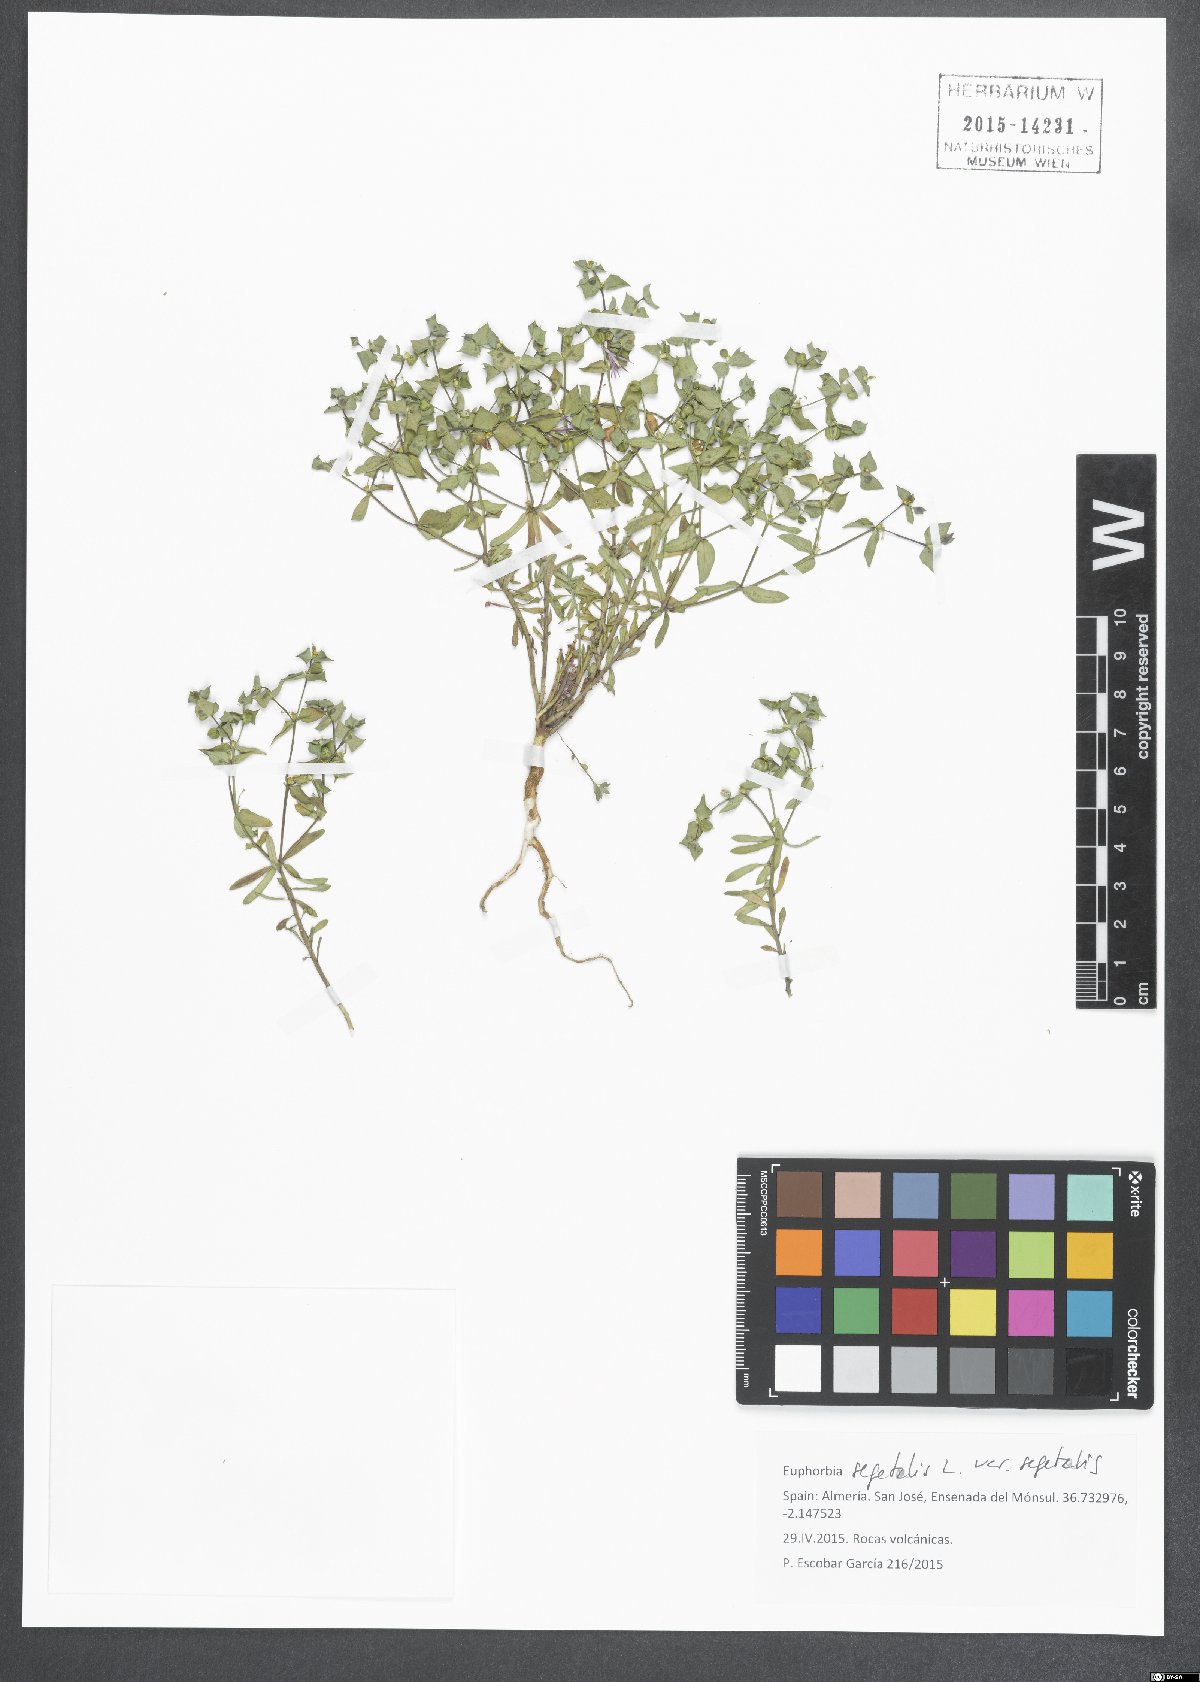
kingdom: Plantae
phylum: Tracheophyta
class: Magnoliopsida
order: Malpighiales
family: Euphorbiaceae
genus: Euphorbia
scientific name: Euphorbia segetalis
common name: Corn spurge
